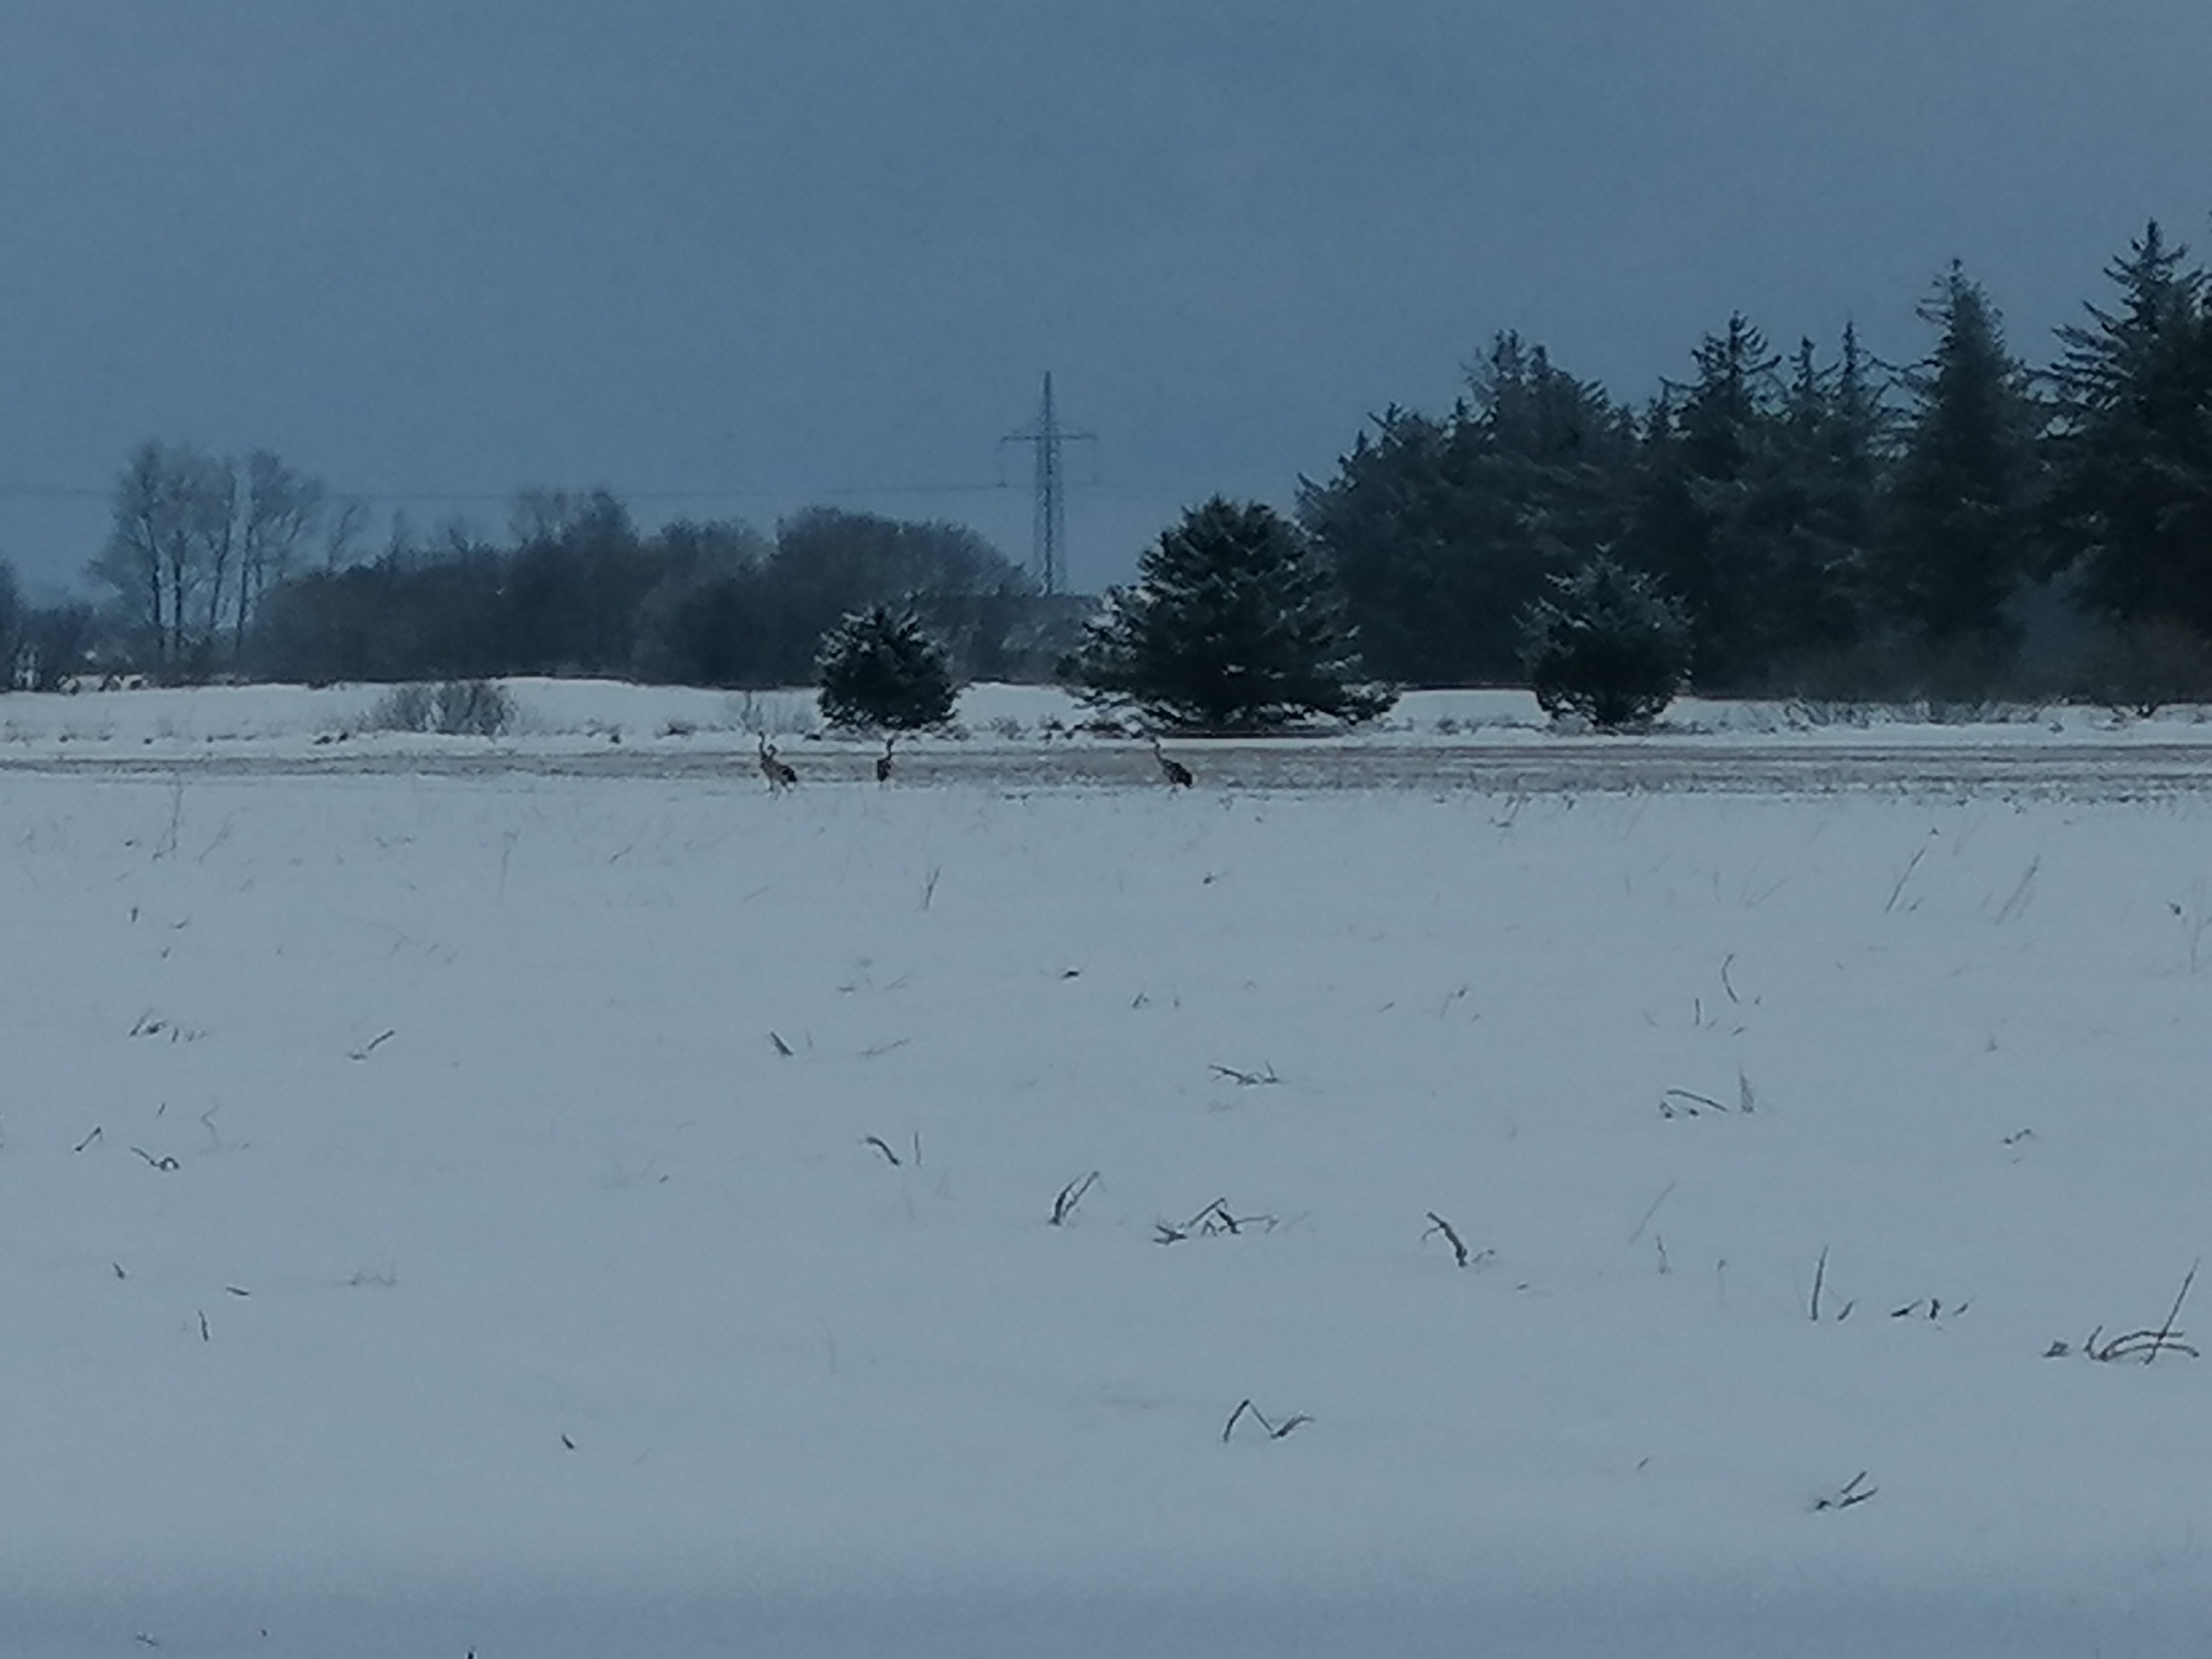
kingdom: Animalia
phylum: Chordata
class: Aves
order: Gruiformes
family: Gruidae
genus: Grus
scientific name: Grus grus
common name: Trane
